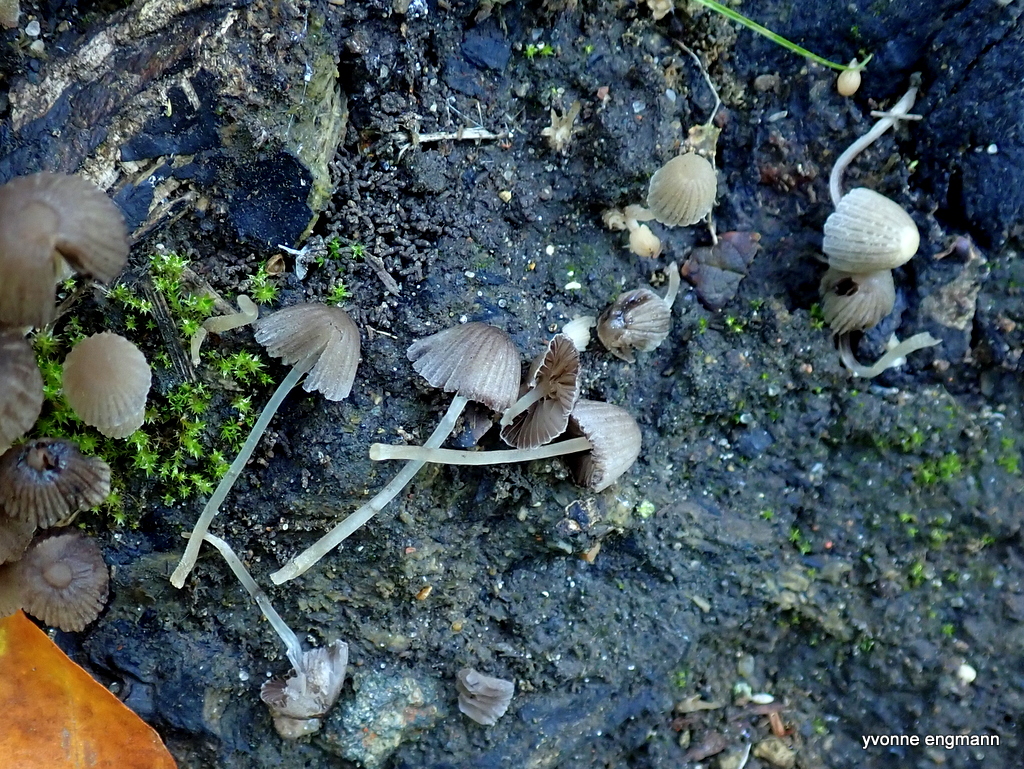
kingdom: Fungi
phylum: Basidiomycota
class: Agaricomycetes
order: Agaricales
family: Psathyrellaceae
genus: Coprinellus
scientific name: Coprinellus disseminatus
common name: bredsået blækhat
